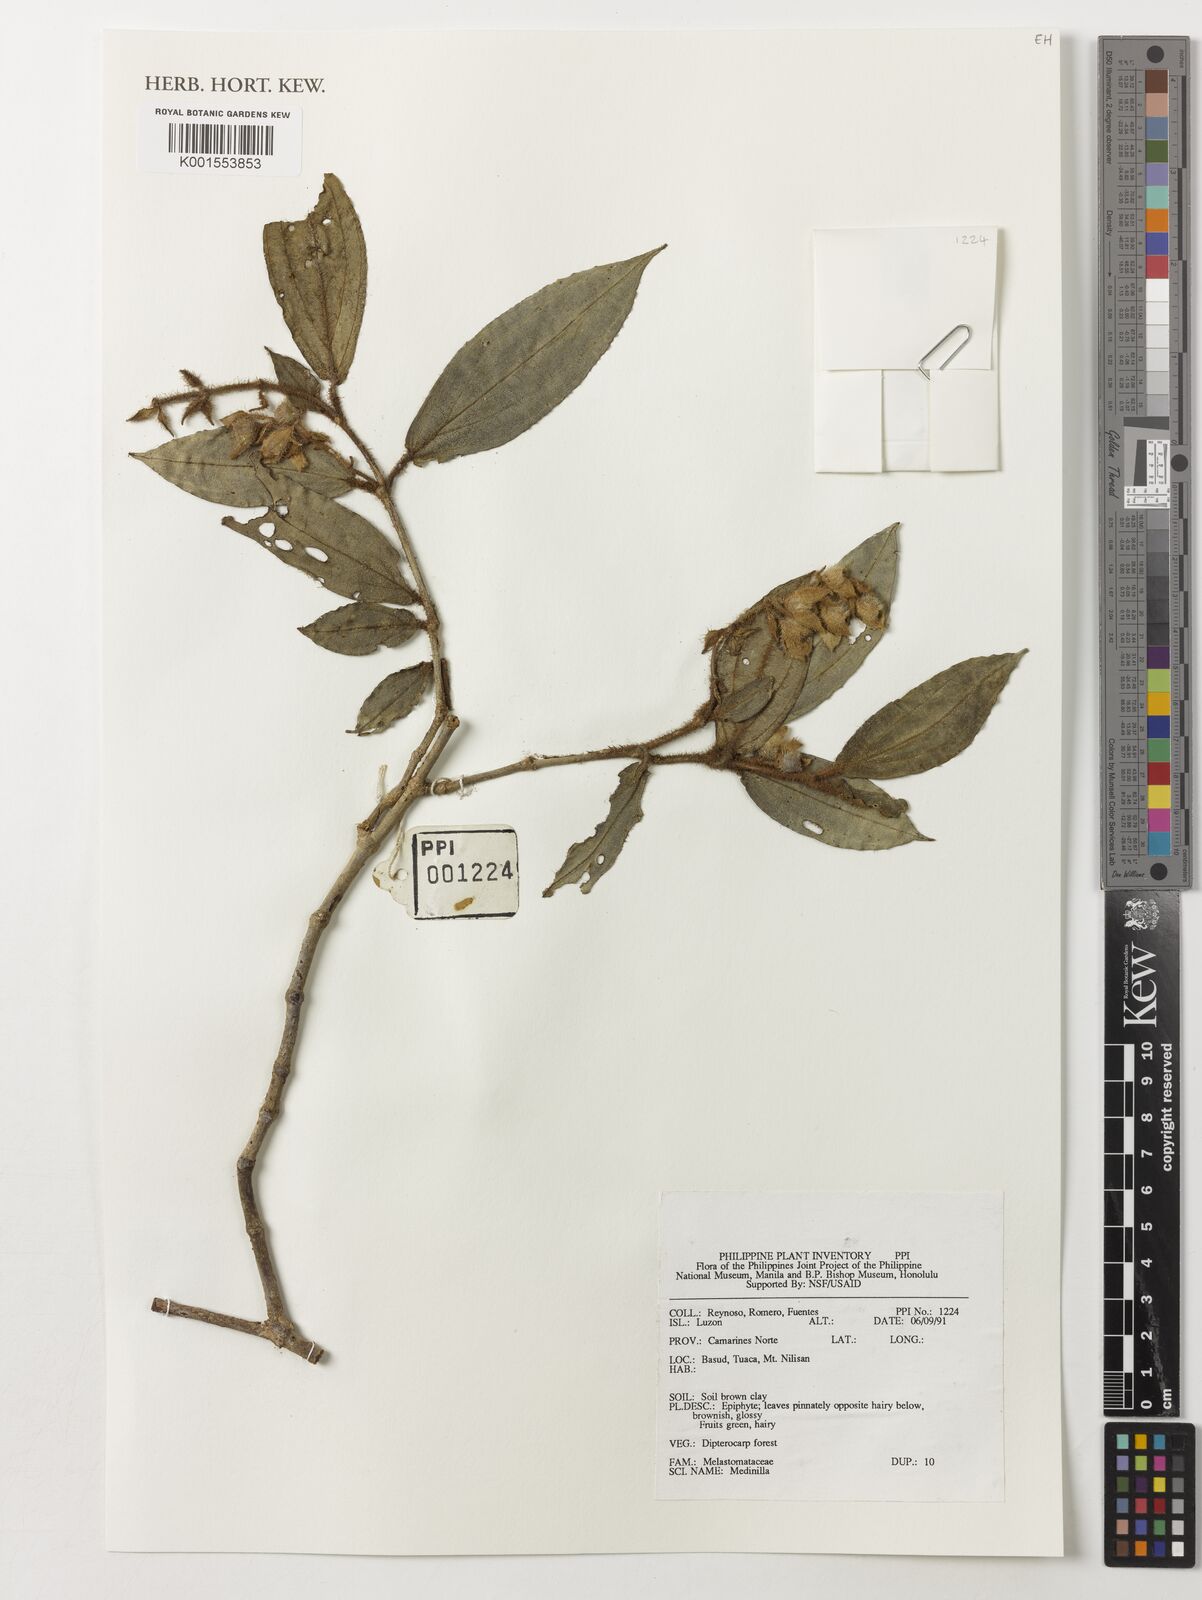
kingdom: Plantae
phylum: Tracheophyta
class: Magnoliopsida
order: Myrtales
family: Melastomataceae
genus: Medinilla
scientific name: Medinilla
